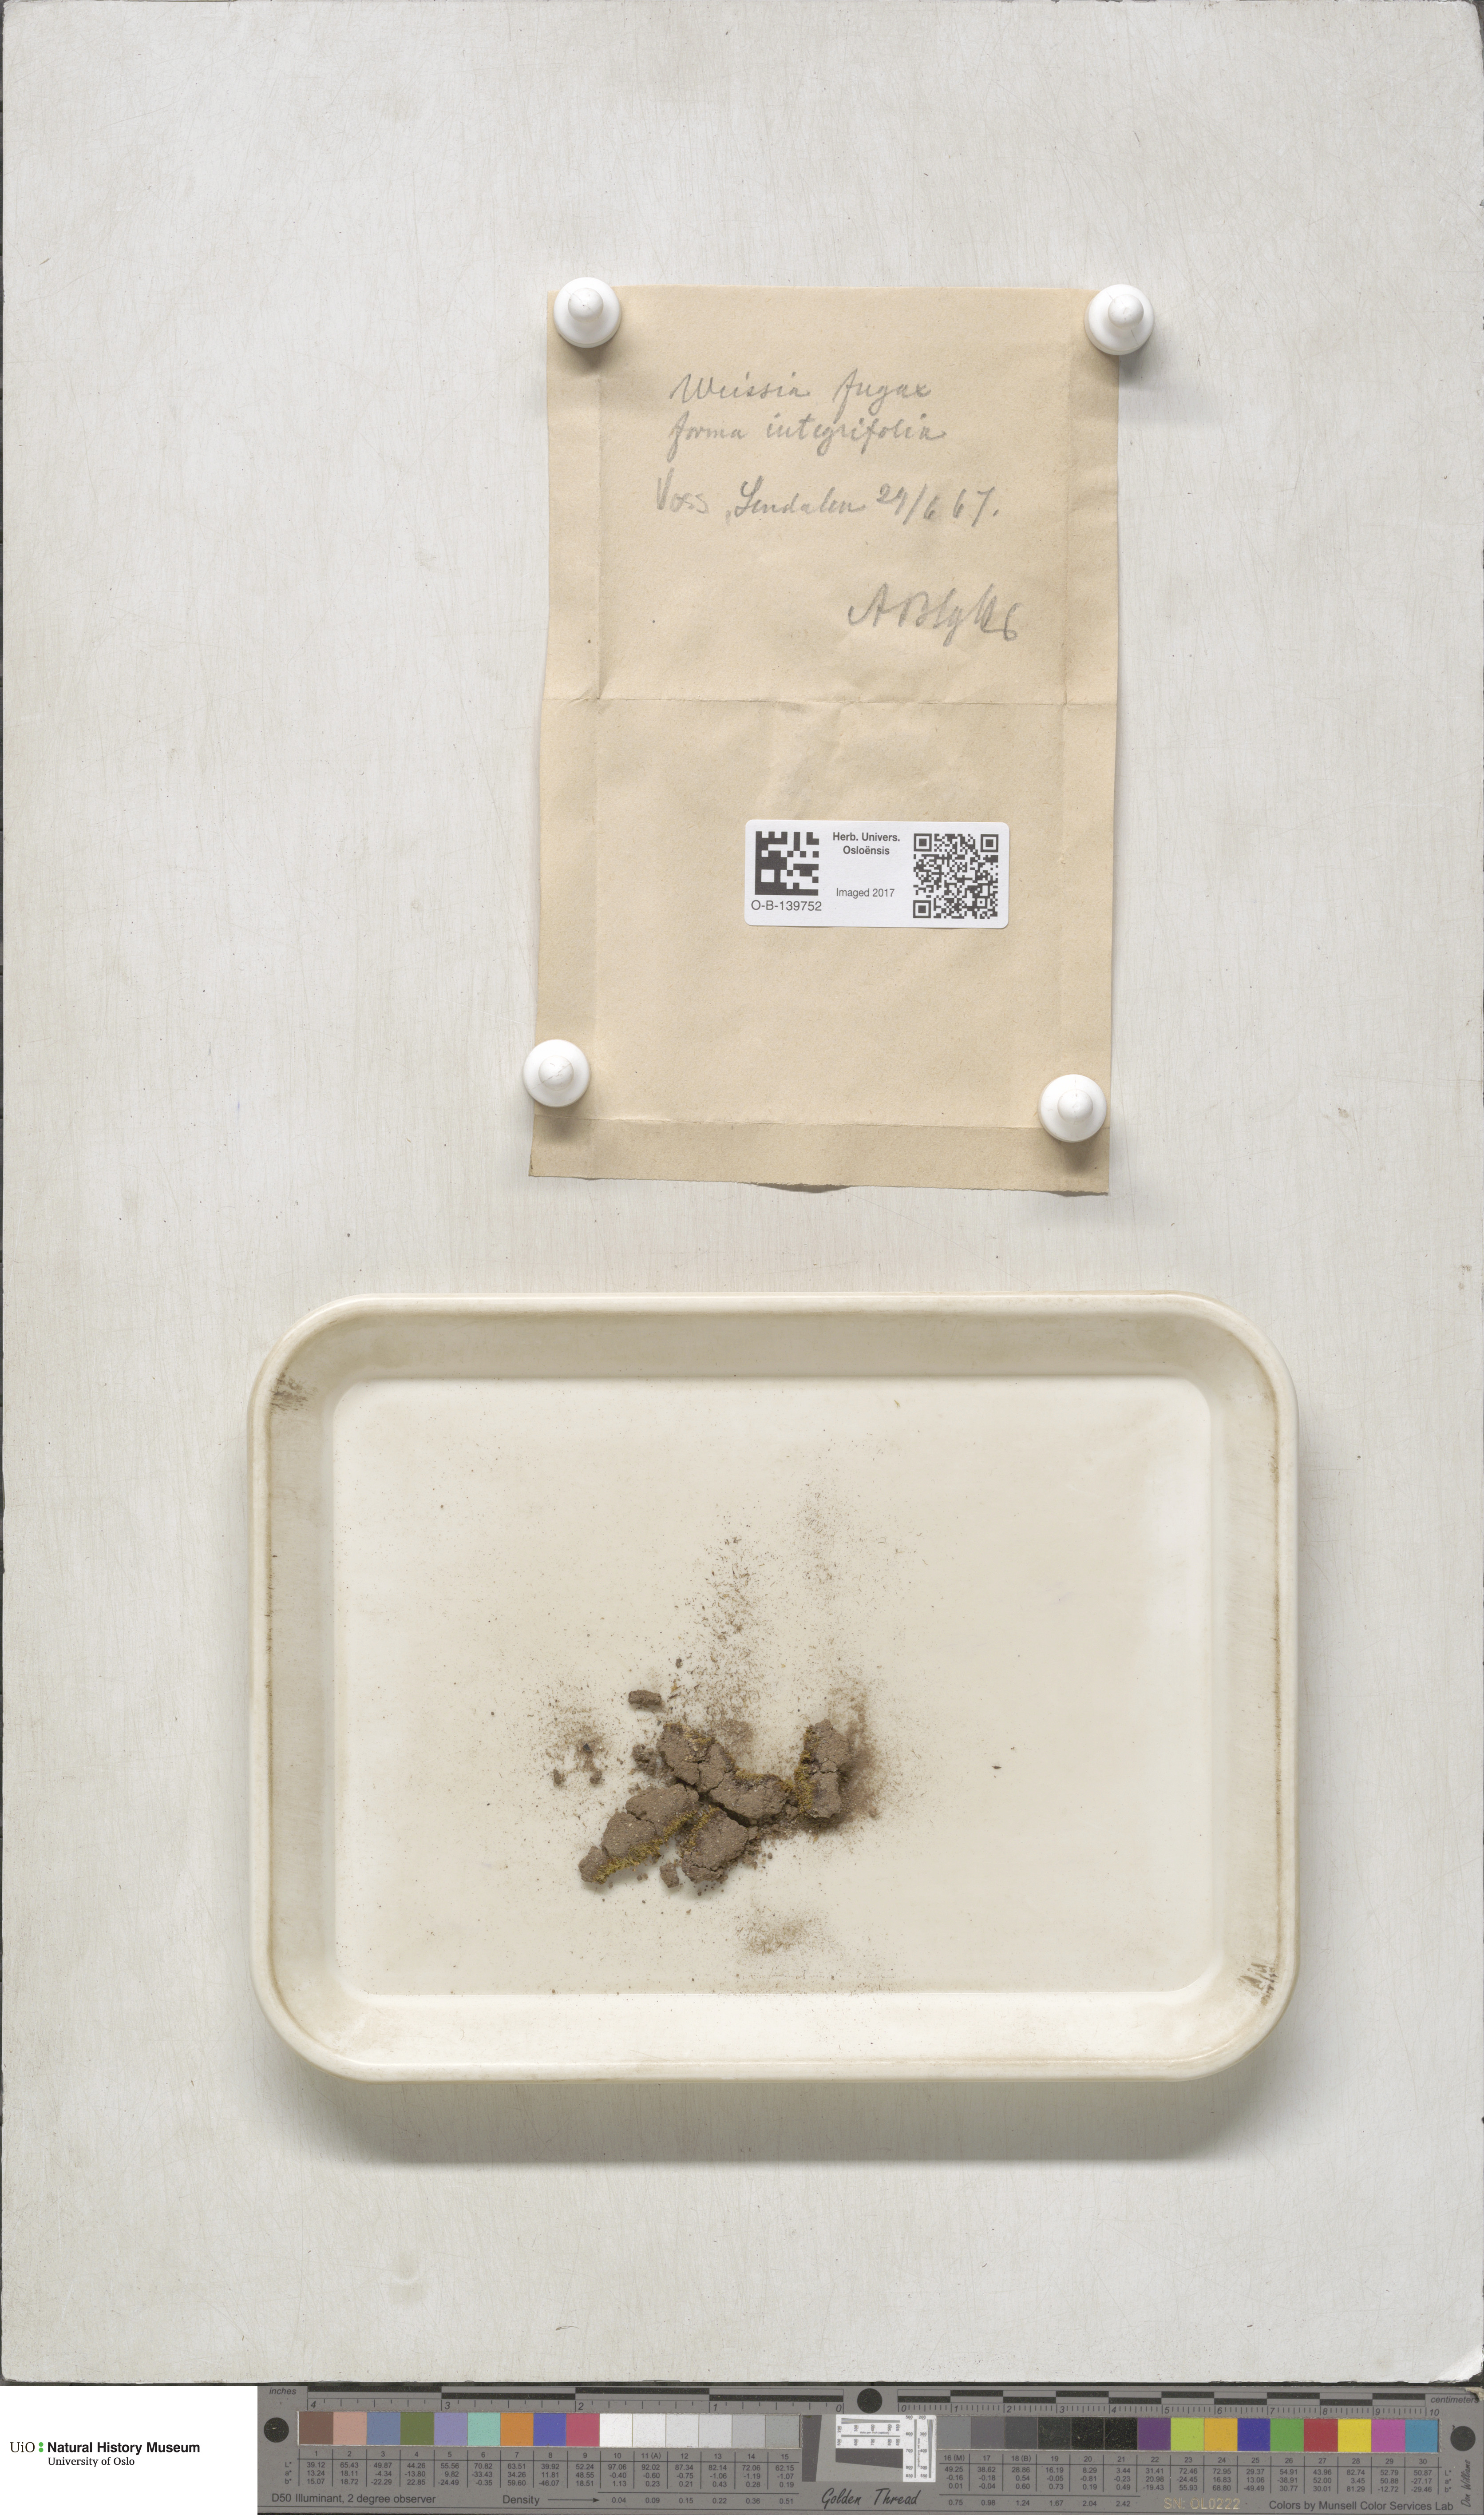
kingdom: Plantae
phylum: Bryophyta
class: Bryopsida
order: Dicranales
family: Rhabdoweisiaceae
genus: Rhabdoweisia
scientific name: Rhabdoweisia fugax
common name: Dwarf streak-moss
